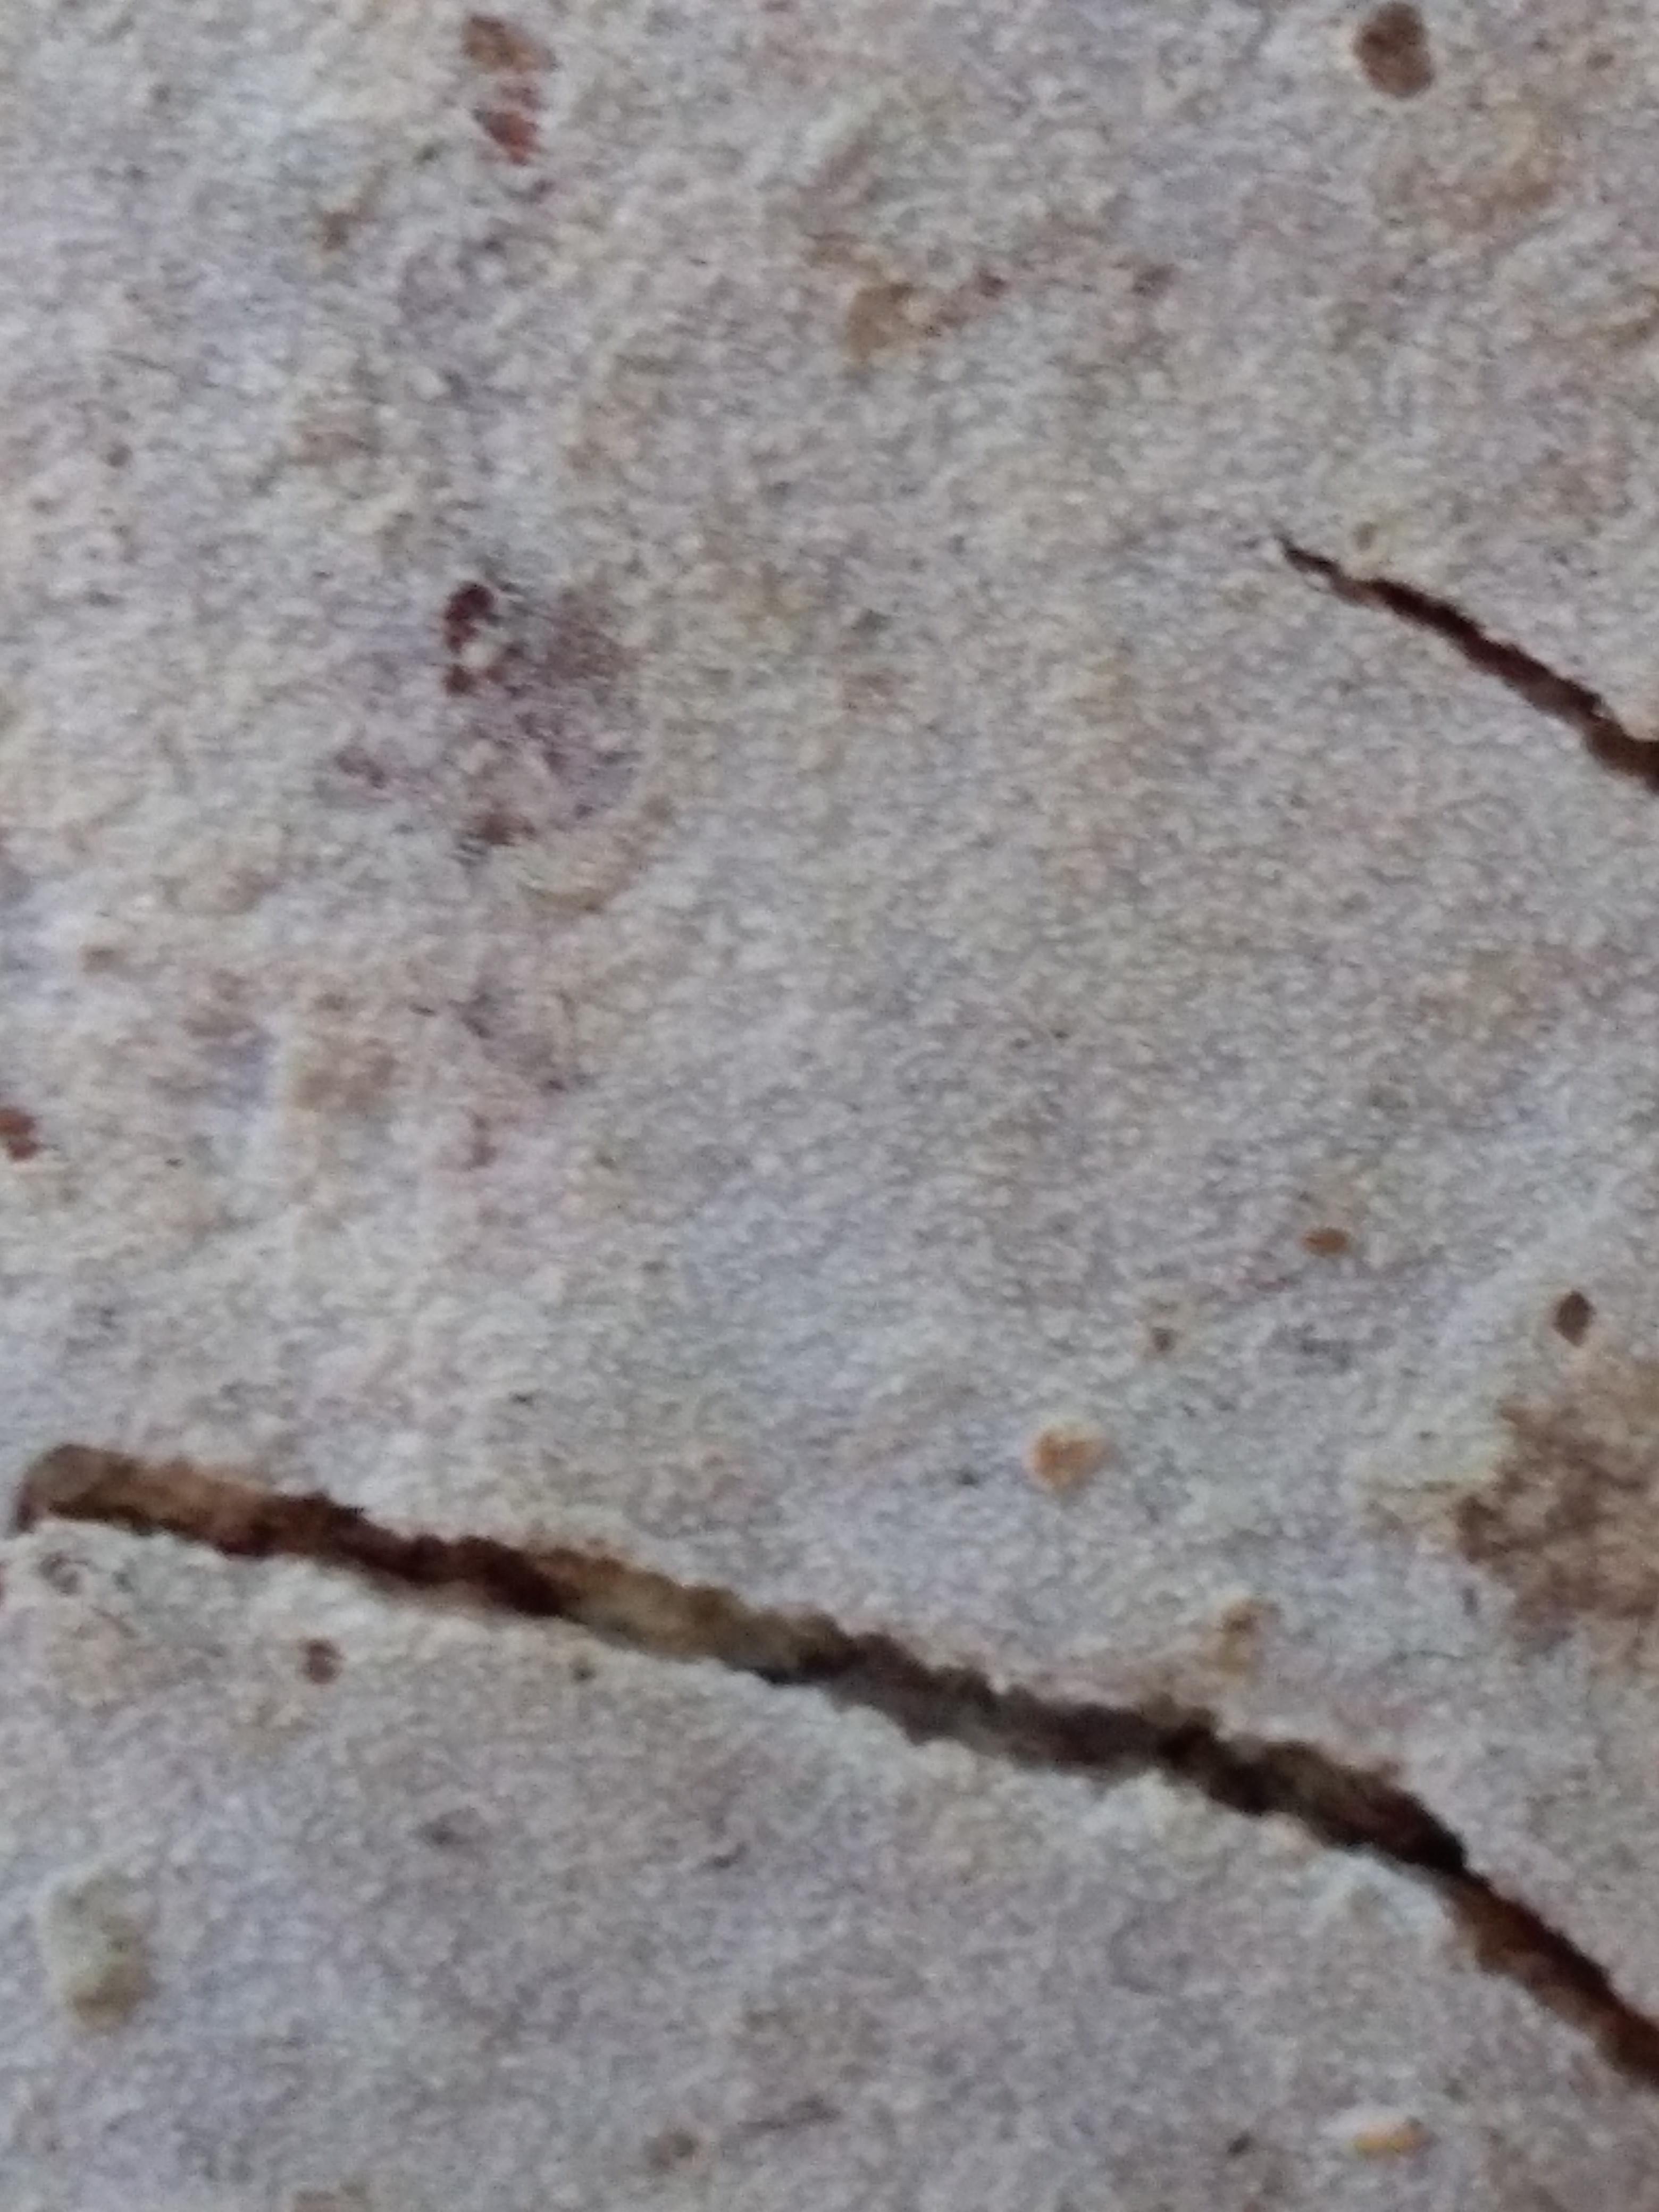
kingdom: Fungi
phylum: Basidiomycota
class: Agaricomycetes
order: Corticiales
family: Corticiaceae
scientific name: Corticiaceae
